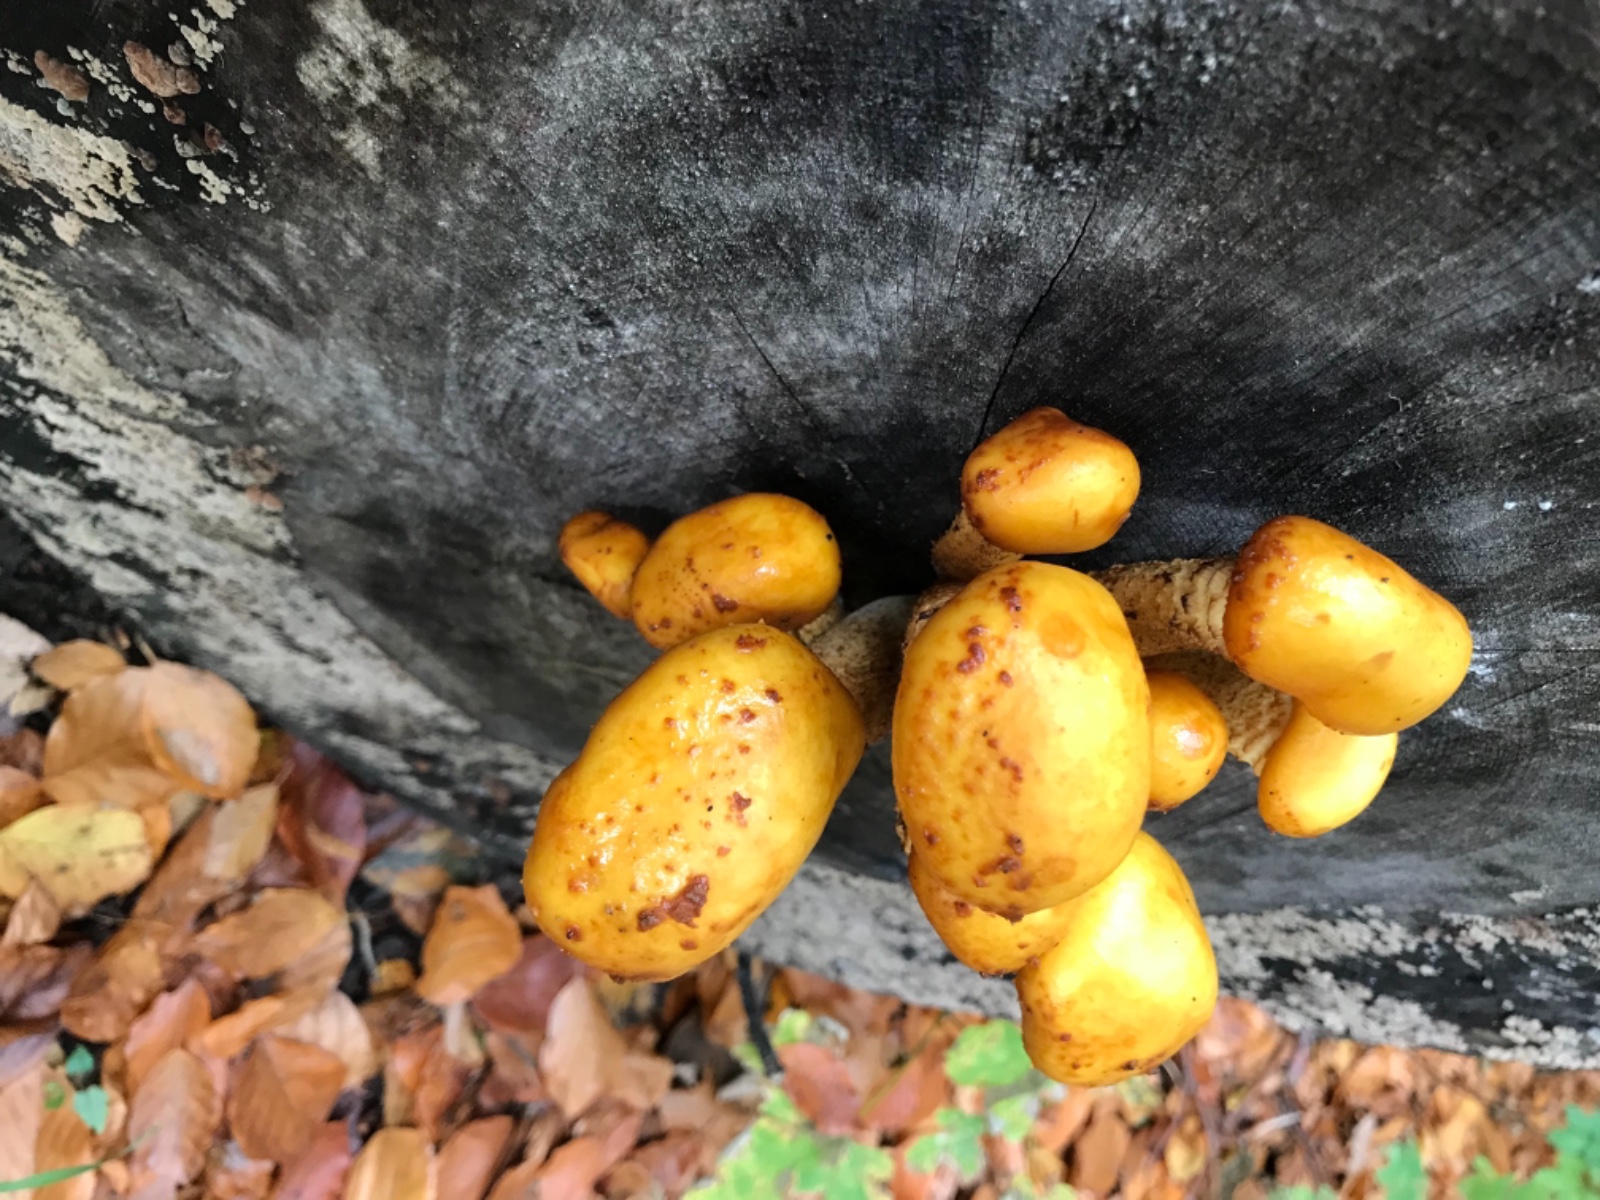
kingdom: Fungi
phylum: Basidiomycota
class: Agaricomycetes
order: Agaricales
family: Strophariaceae
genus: Pholiota
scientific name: Pholiota adiposa
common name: højtsiddende skælhat
